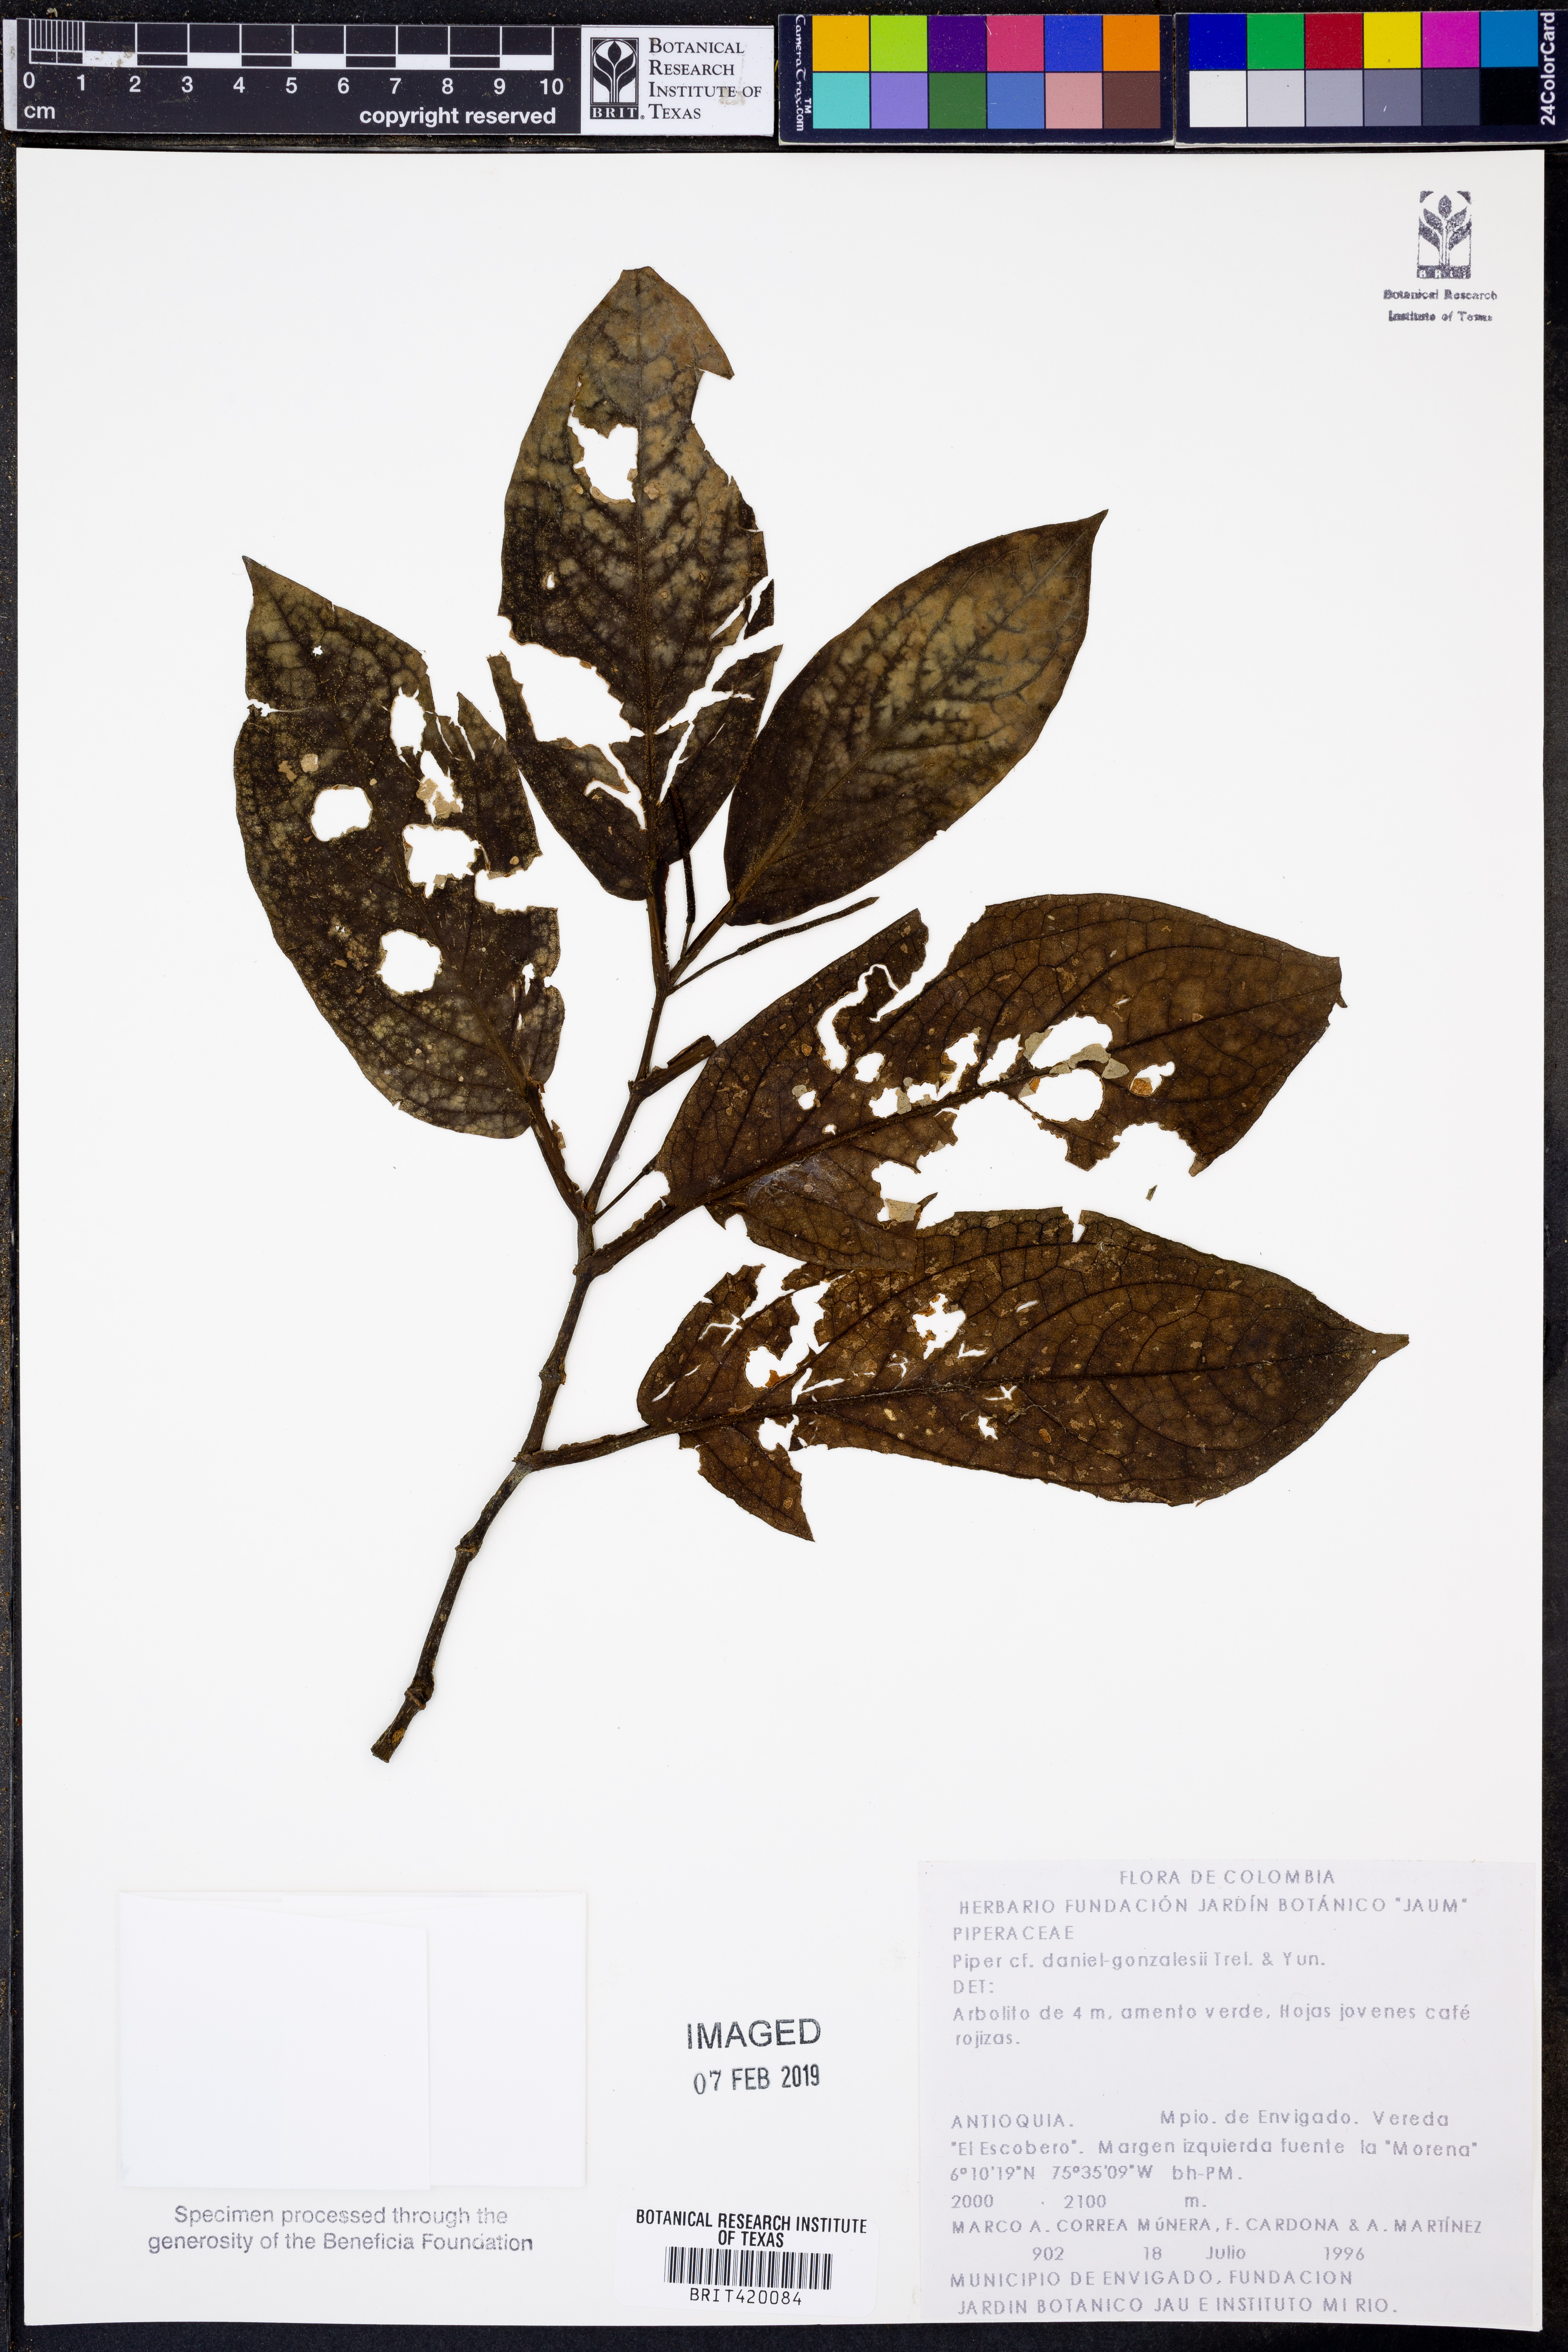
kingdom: Plantae
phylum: Tracheophyta
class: Magnoliopsida
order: Piperales
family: Piperaceae
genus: Piper
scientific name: Piper daniel-gonzalezii
